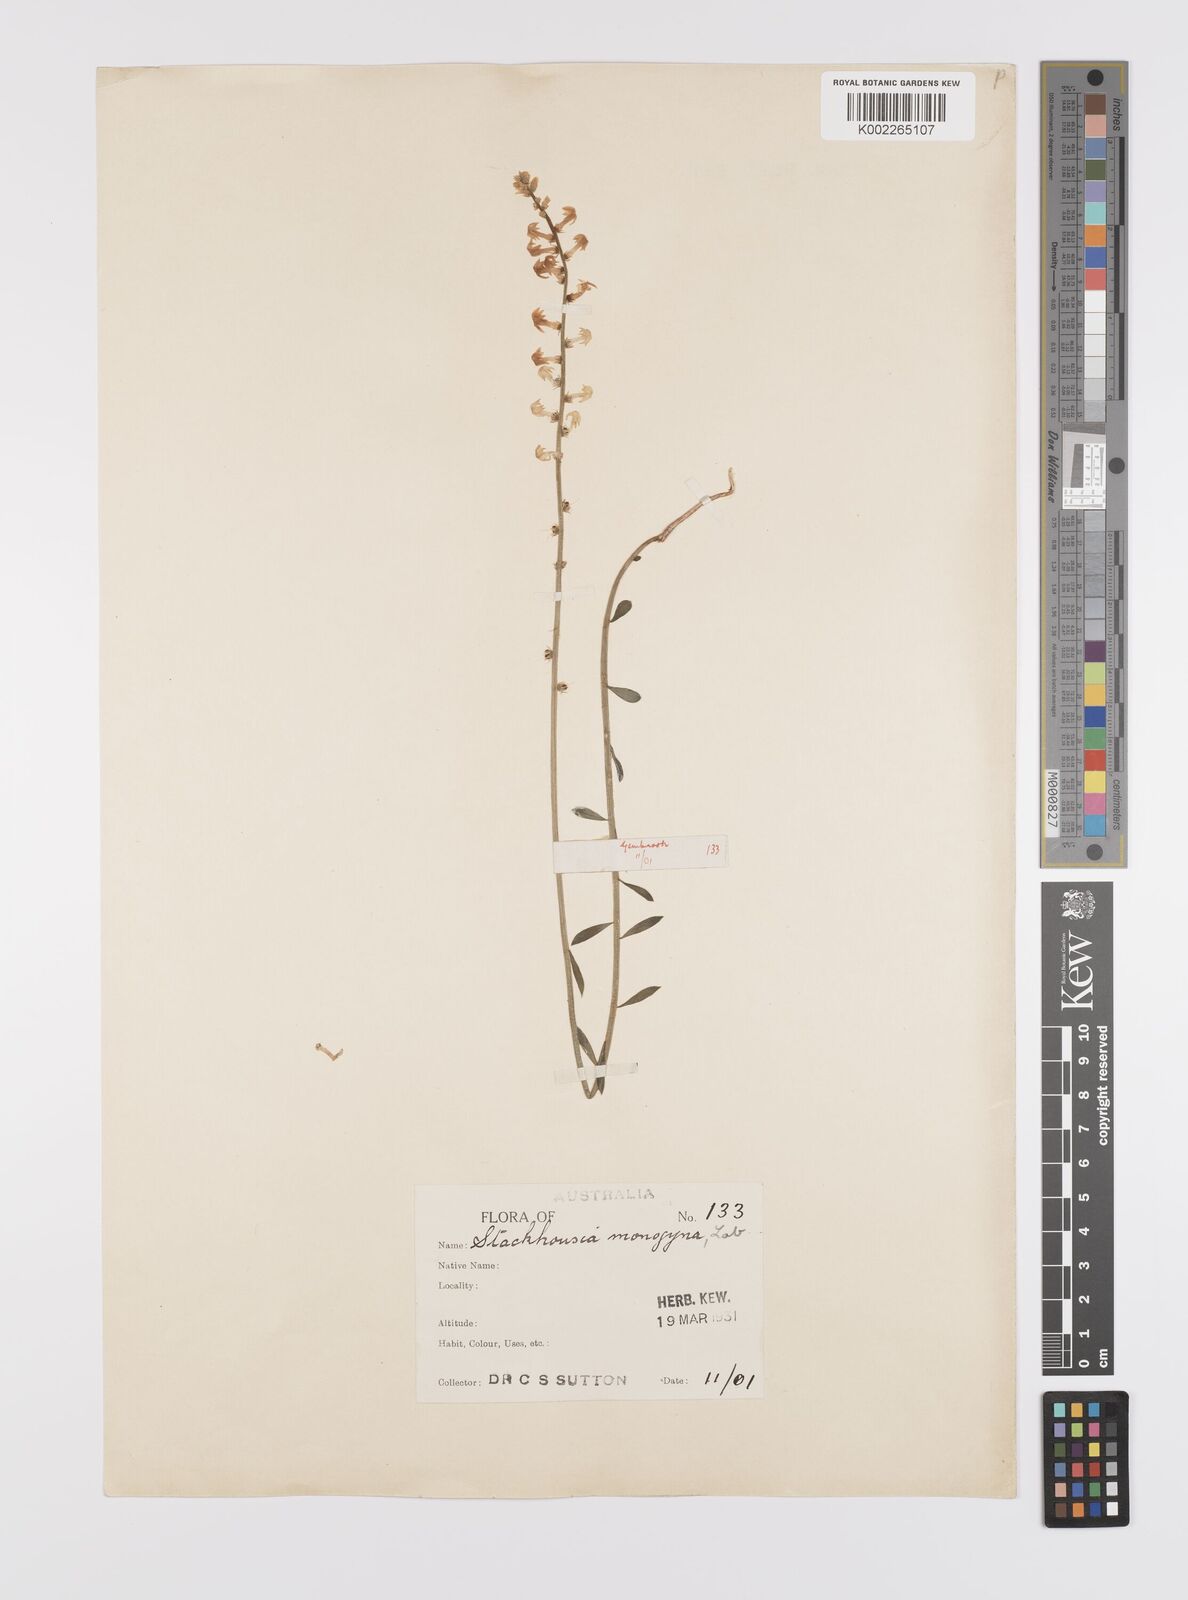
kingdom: Plantae
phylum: Tracheophyta
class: Magnoliopsida
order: Celastrales
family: Celastraceae
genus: Stackhousia
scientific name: Stackhousia monogyna
